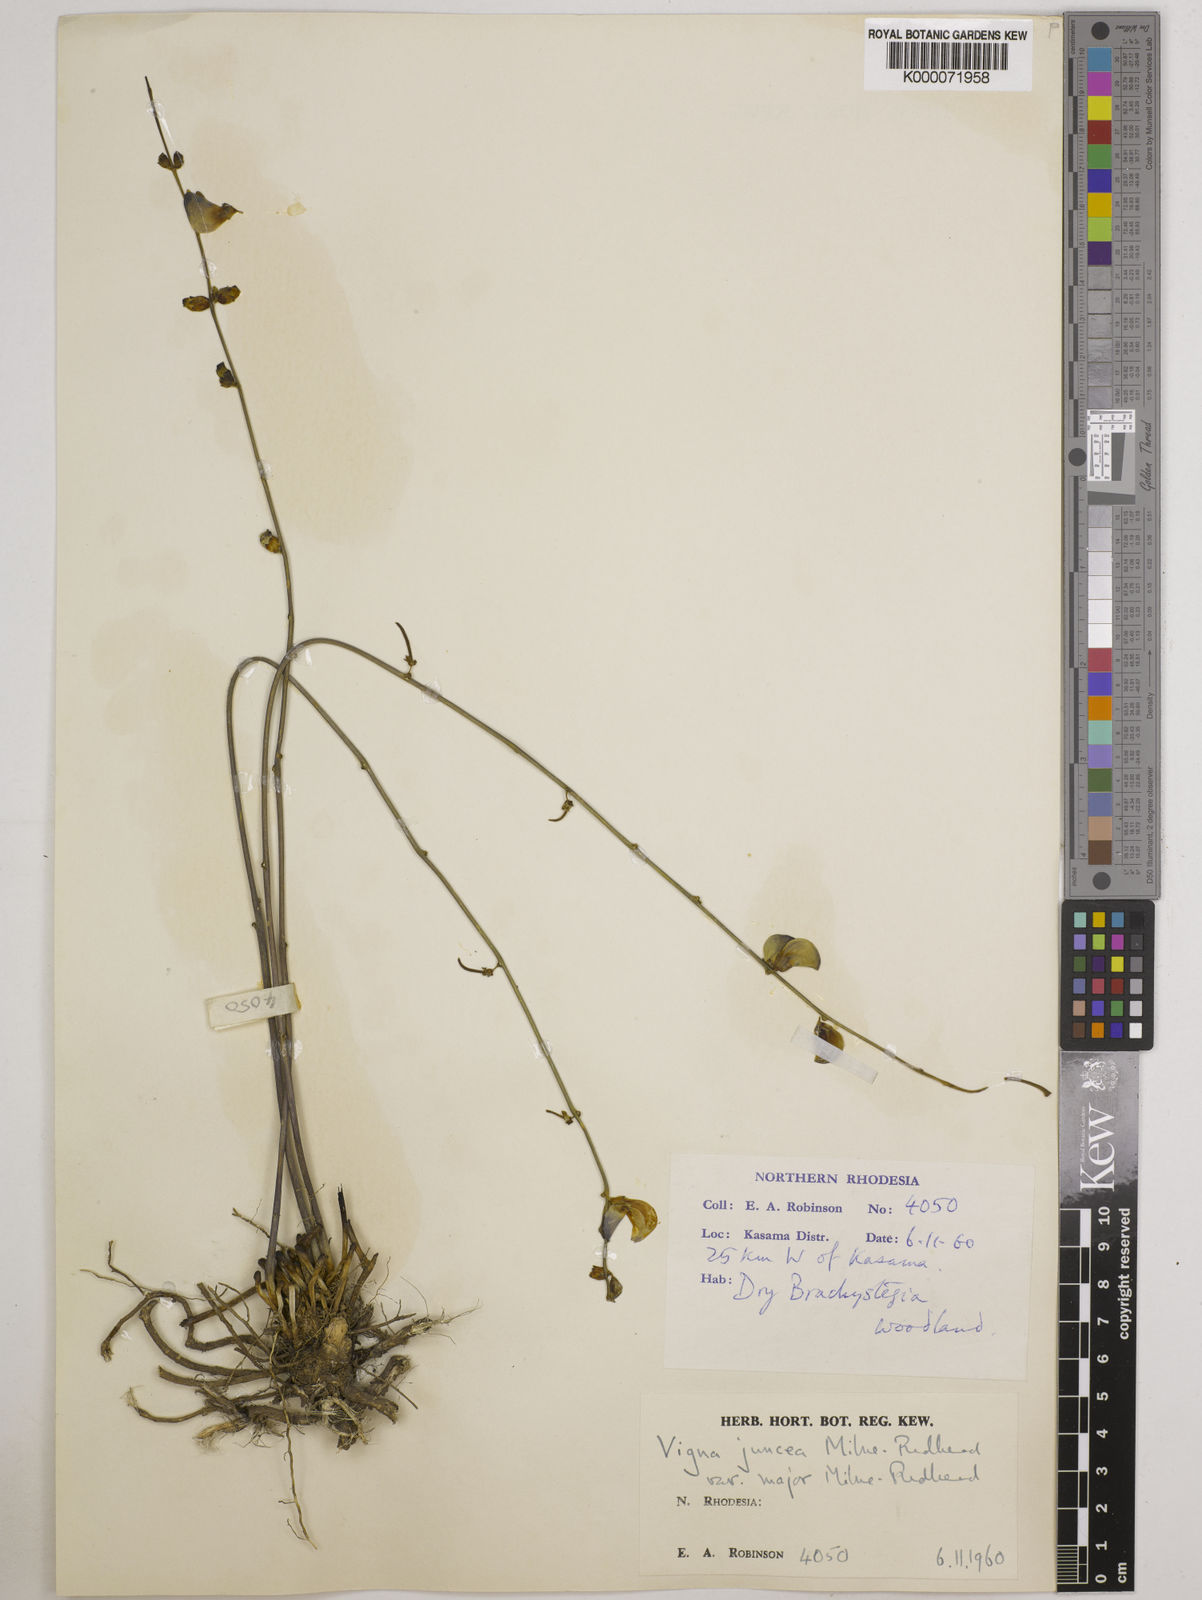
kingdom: Plantae
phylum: Tracheophyta
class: Magnoliopsida
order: Fabales
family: Fabaceae
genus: Vigna
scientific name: Vigna juncea
